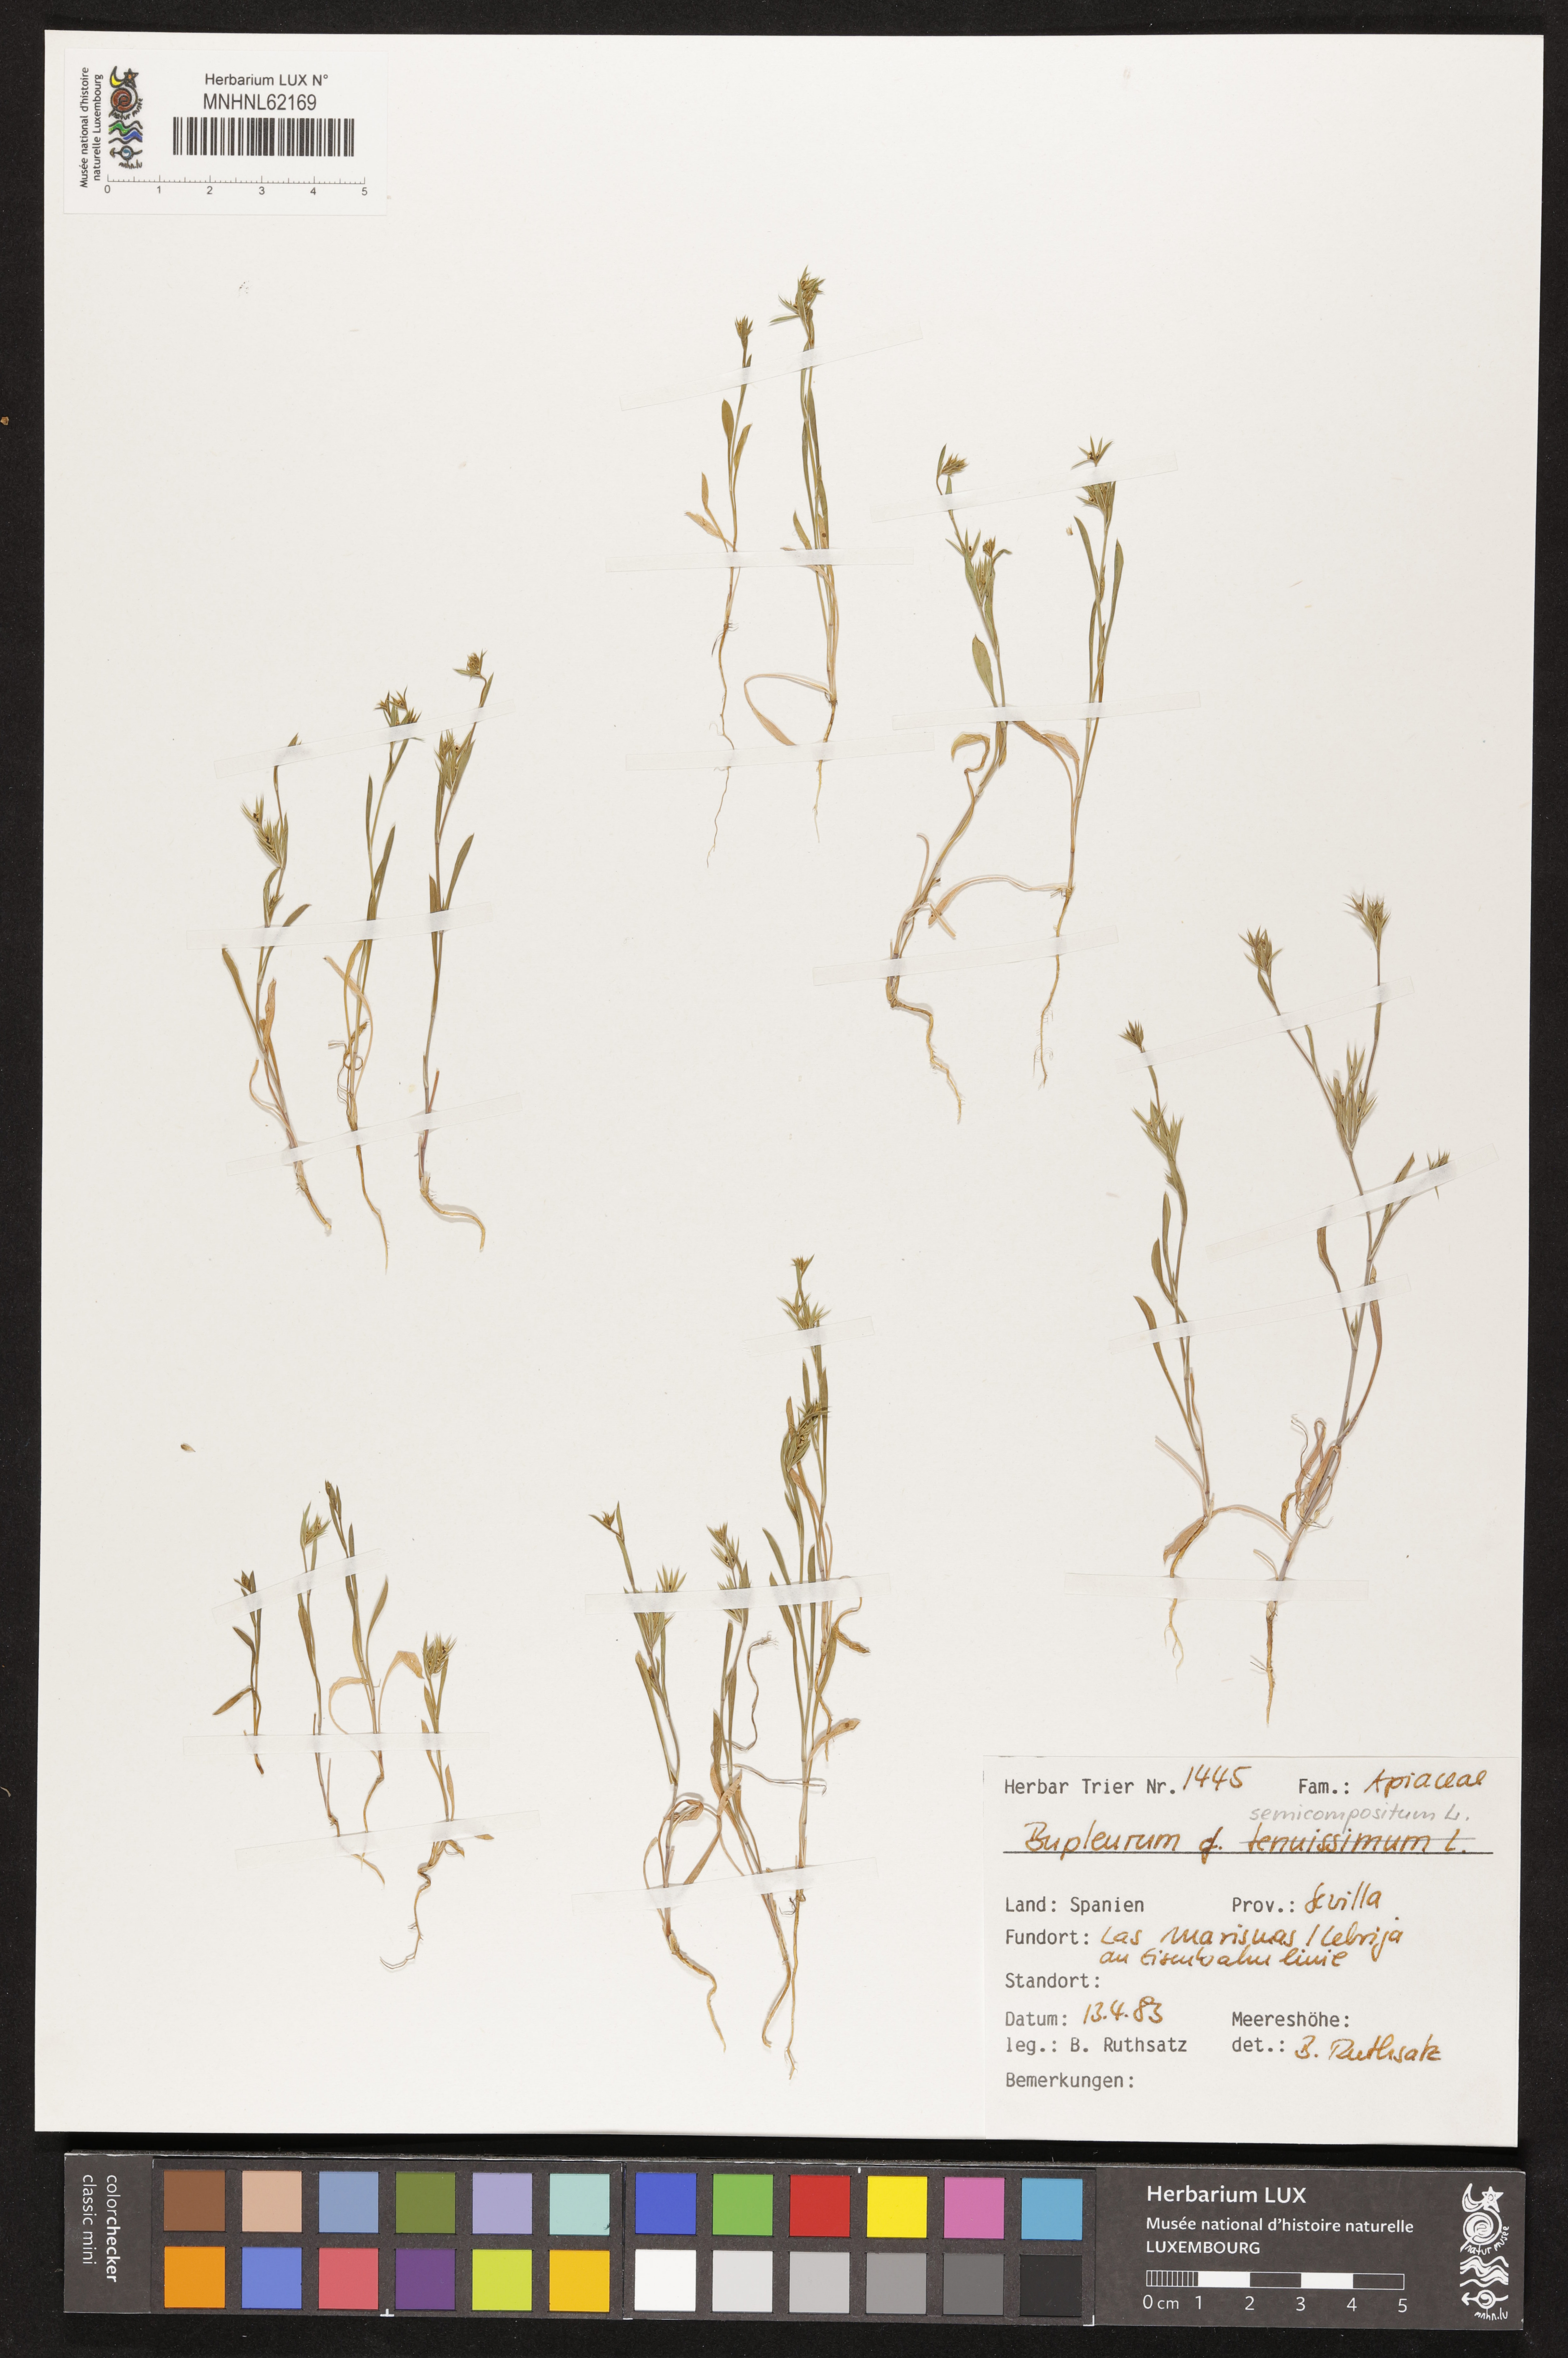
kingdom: Plantae
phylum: Tracheophyta
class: Magnoliopsida
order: Apiales
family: Apiaceae
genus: Bupleurum
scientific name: Bupleurum semicompositum
